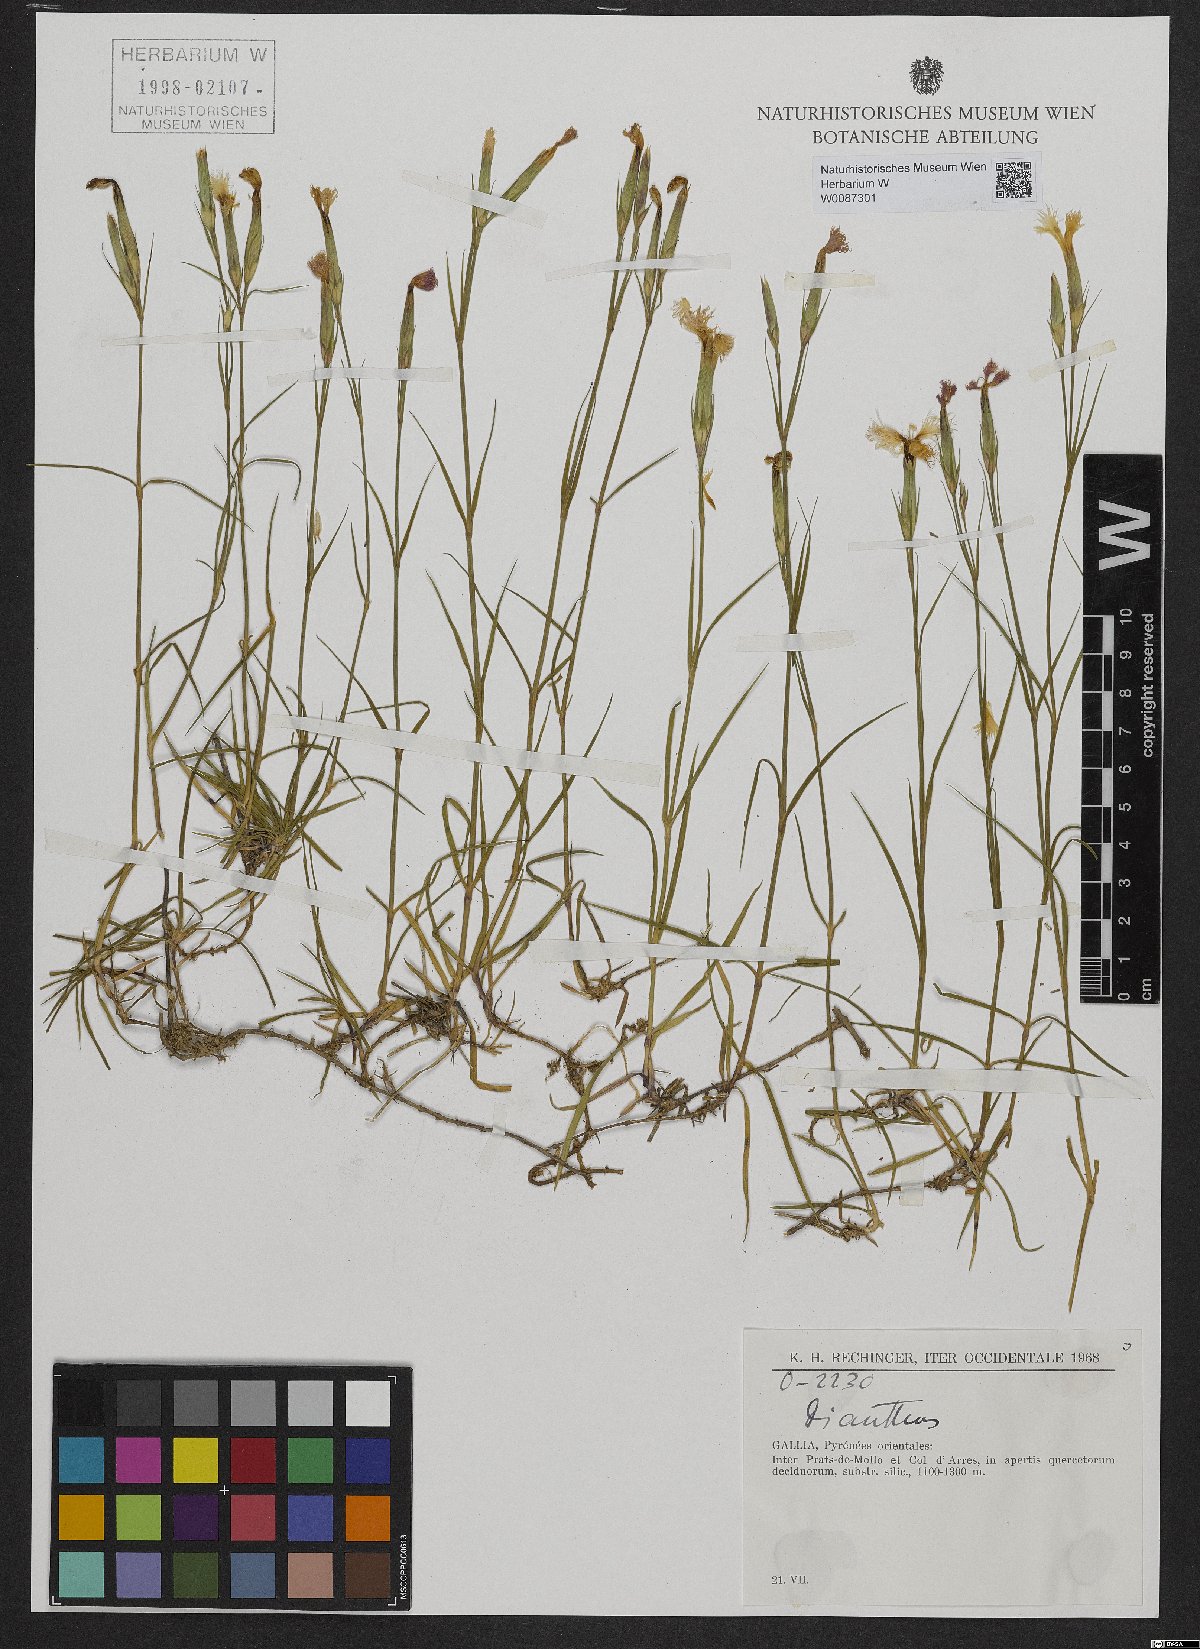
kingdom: Plantae
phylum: Tracheophyta
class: Magnoliopsida
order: Caryophyllales
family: Caryophyllaceae
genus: Dianthus
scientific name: Dianthus
